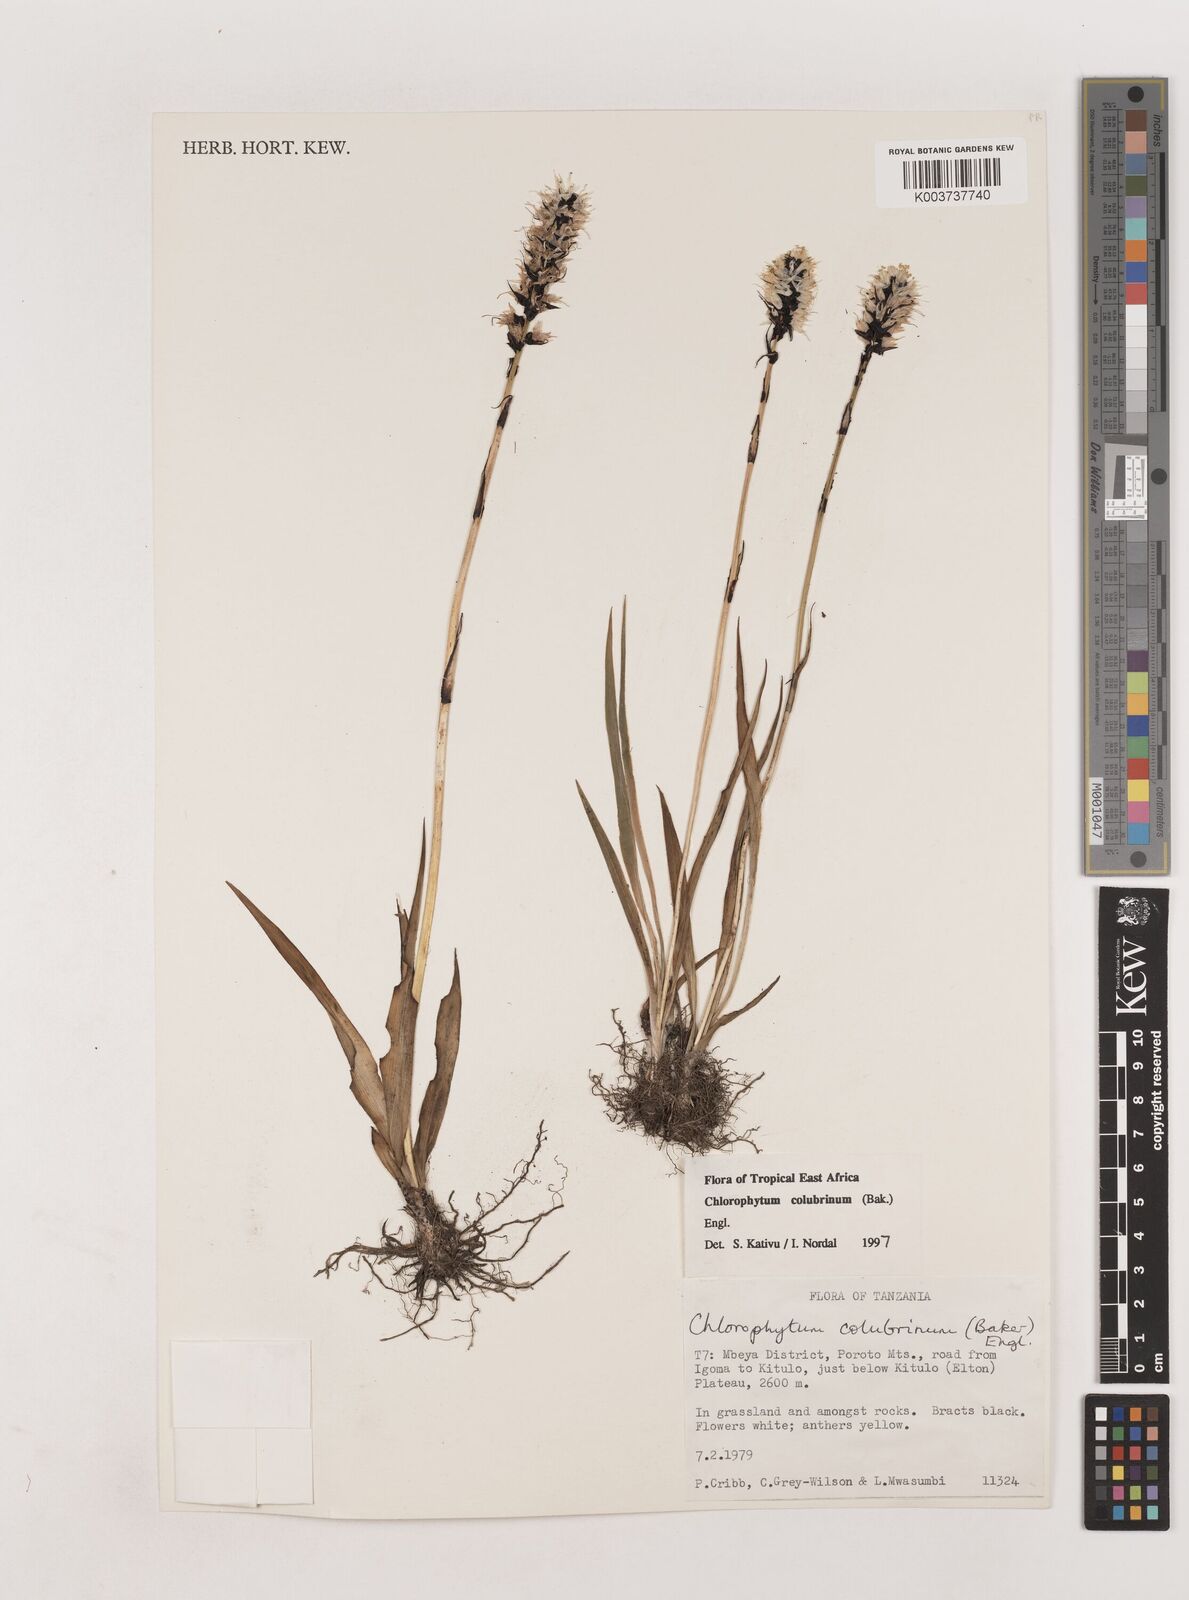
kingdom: Plantae
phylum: Tracheophyta
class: Liliopsida
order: Asparagales
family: Asparagaceae
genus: Chlorophytum
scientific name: Chlorophytum colubrinum
